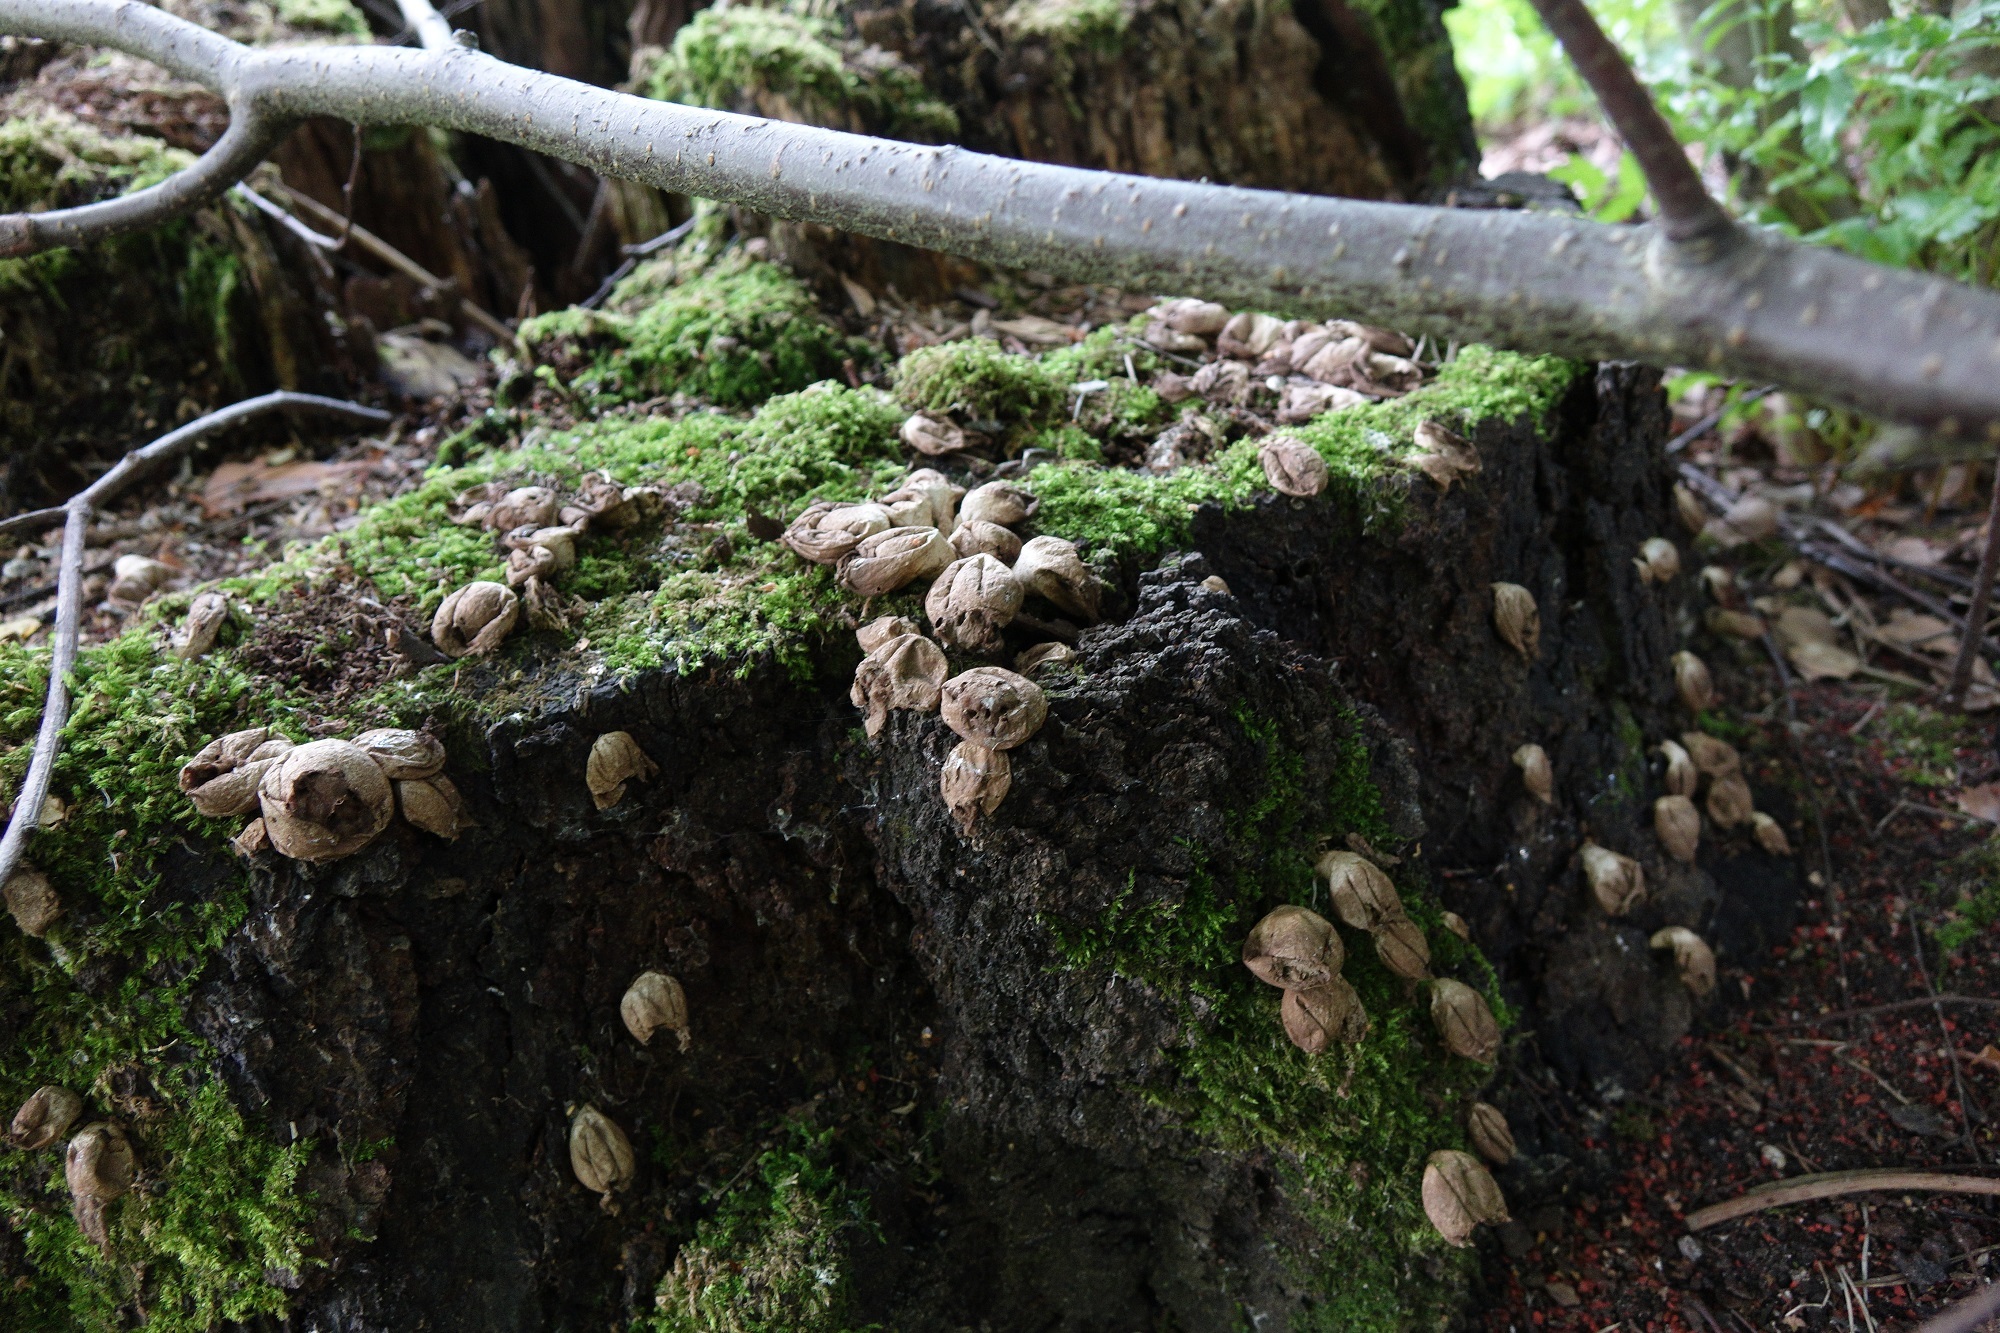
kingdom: Fungi
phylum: Basidiomycota
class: Agaricomycetes
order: Agaricales
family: Lycoperdaceae
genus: Apioperdon
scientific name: Apioperdon pyriforme
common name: Pear-shaped puffball
